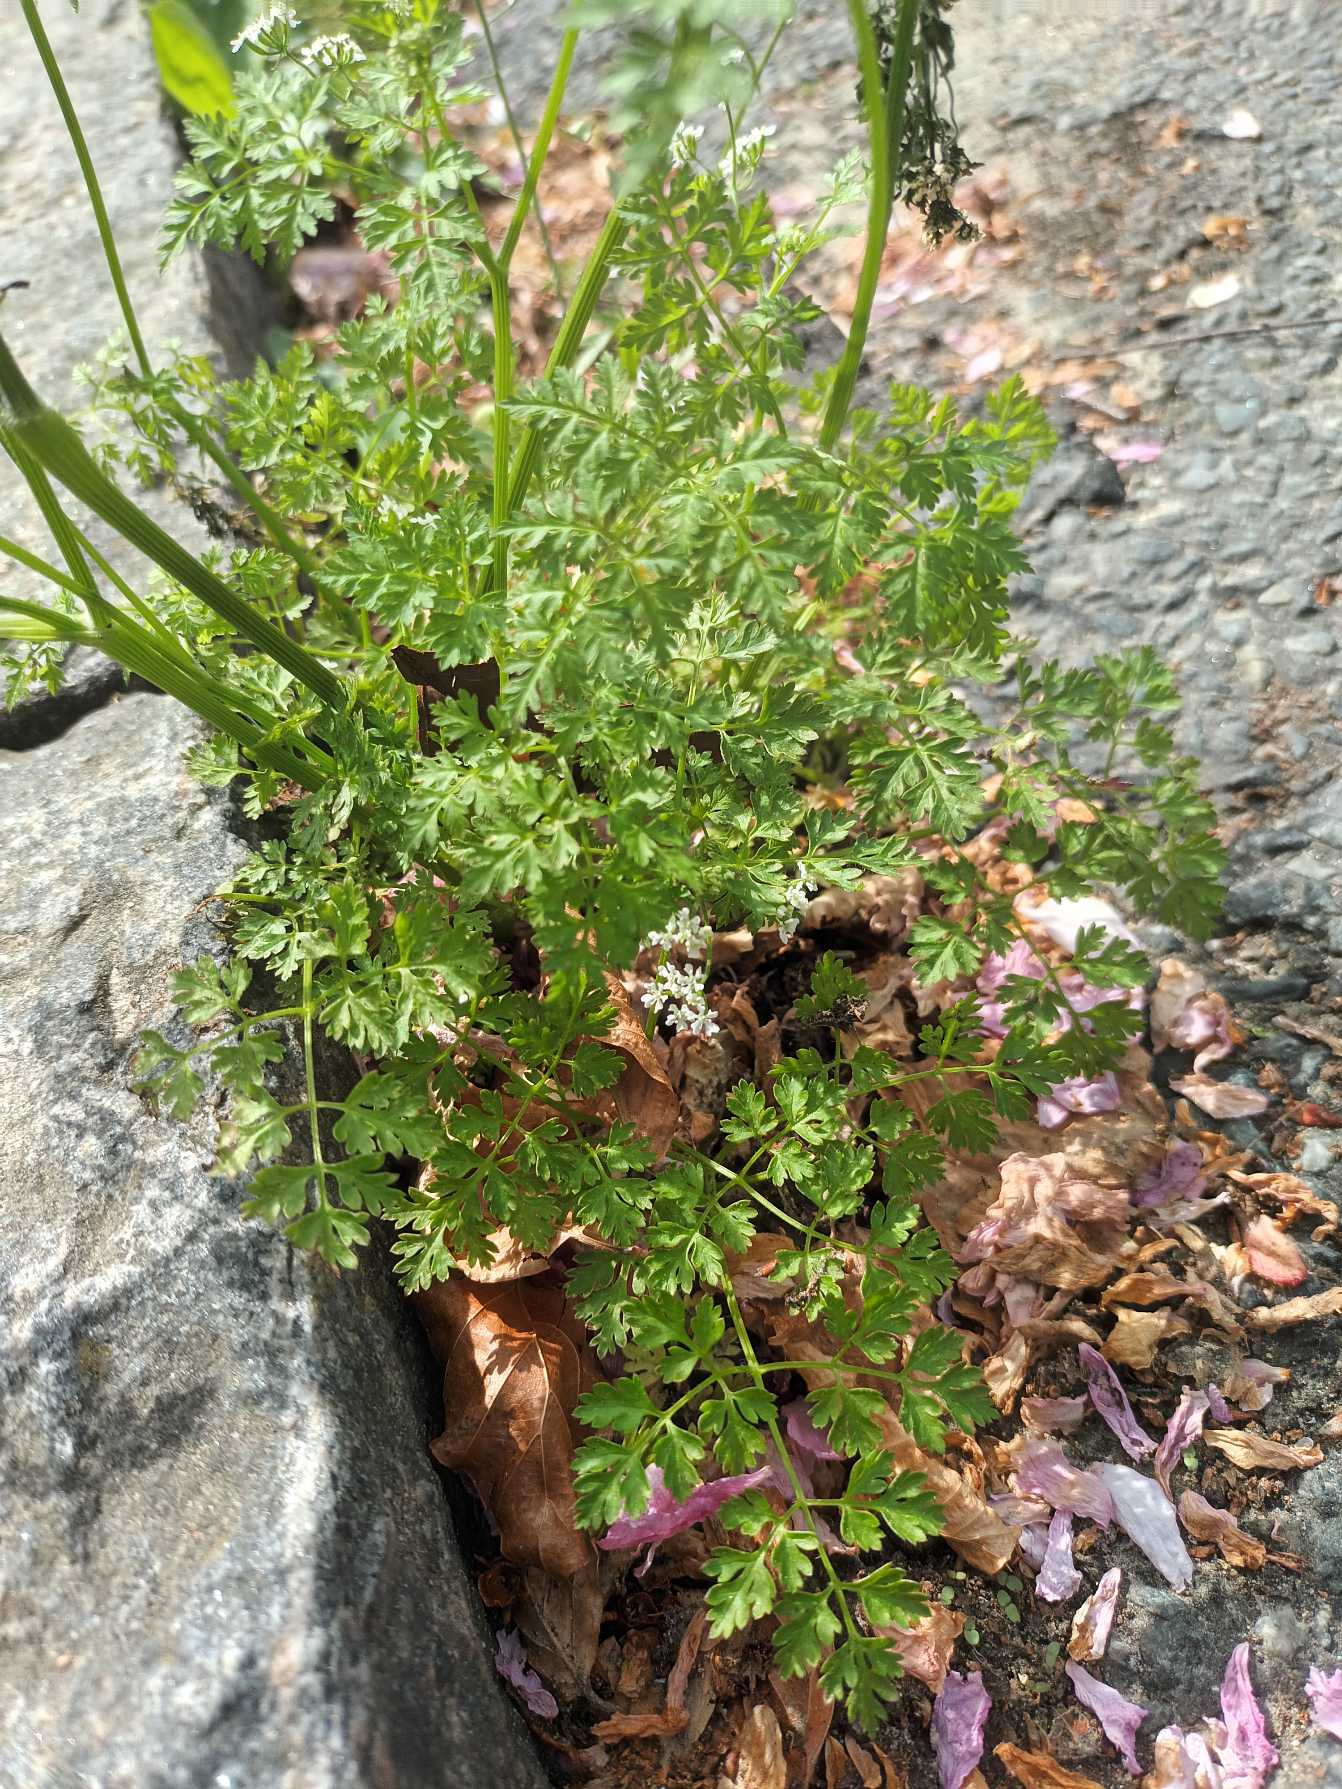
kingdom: Plantae
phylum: Tracheophyta
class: Magnoliopsida
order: Apiales
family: Apiaceae
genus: Anthriscus
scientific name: Anthriscus cerefolium
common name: Have-kørvel
